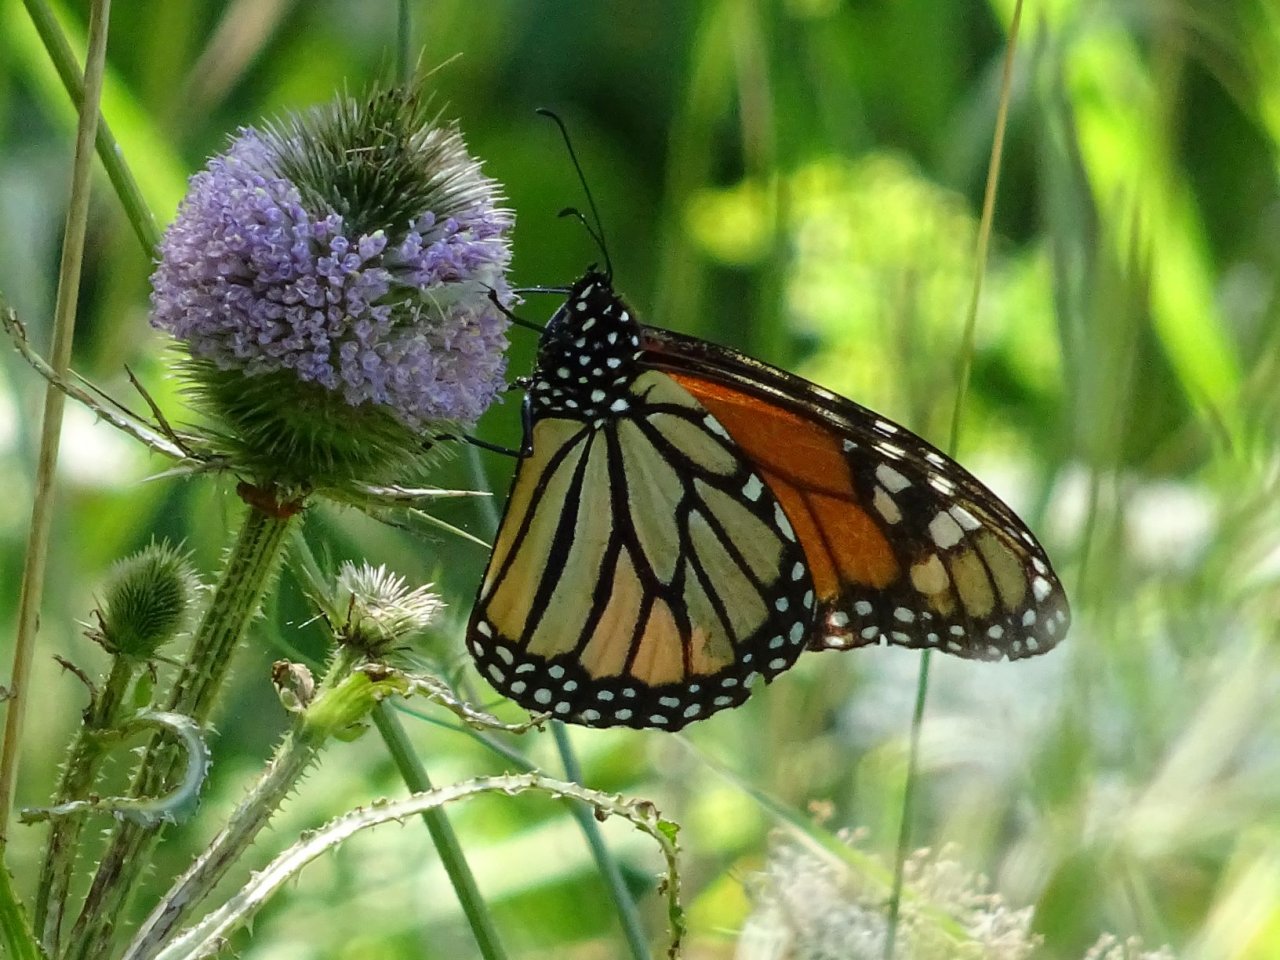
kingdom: Animalia
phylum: Arthropoda
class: Insecta
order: Lepidoptera
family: Nymphalidae
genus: Danaus
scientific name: Danaus plexippus
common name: Monarch
